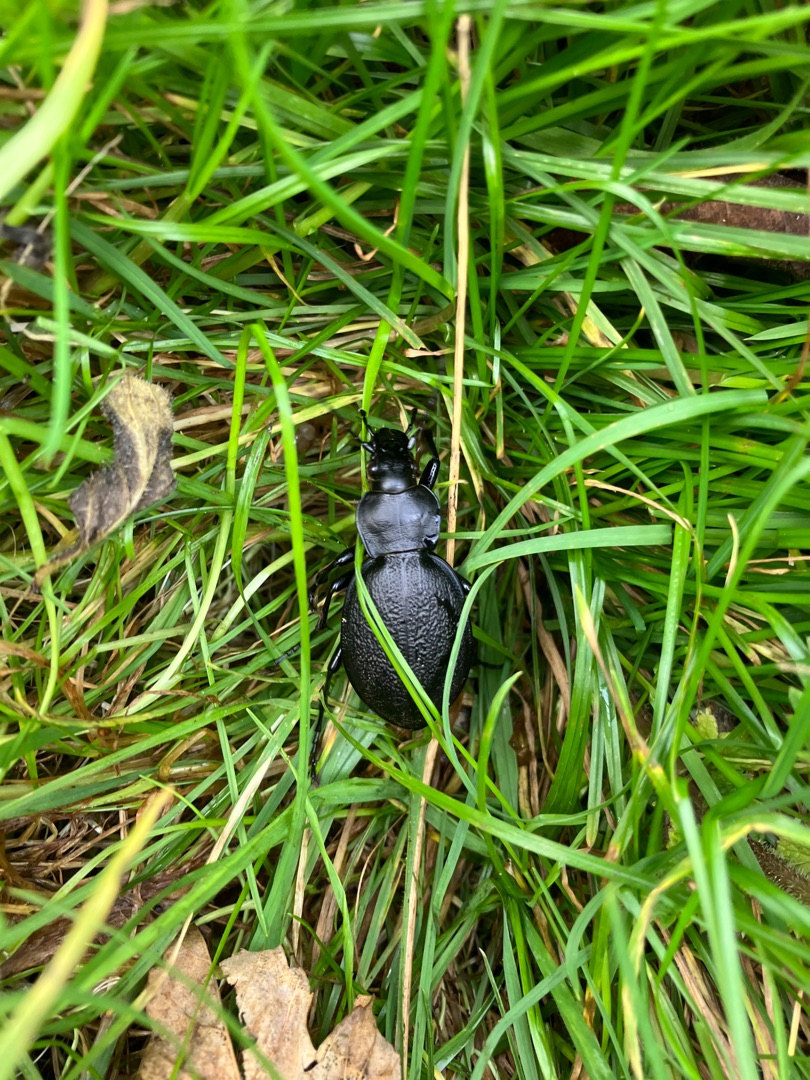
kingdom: Animalia
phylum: Arthropoda
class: Insecta
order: Coleoptera
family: Carabidae
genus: Carabus
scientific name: Carabus coriaceus
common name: Læderløber
